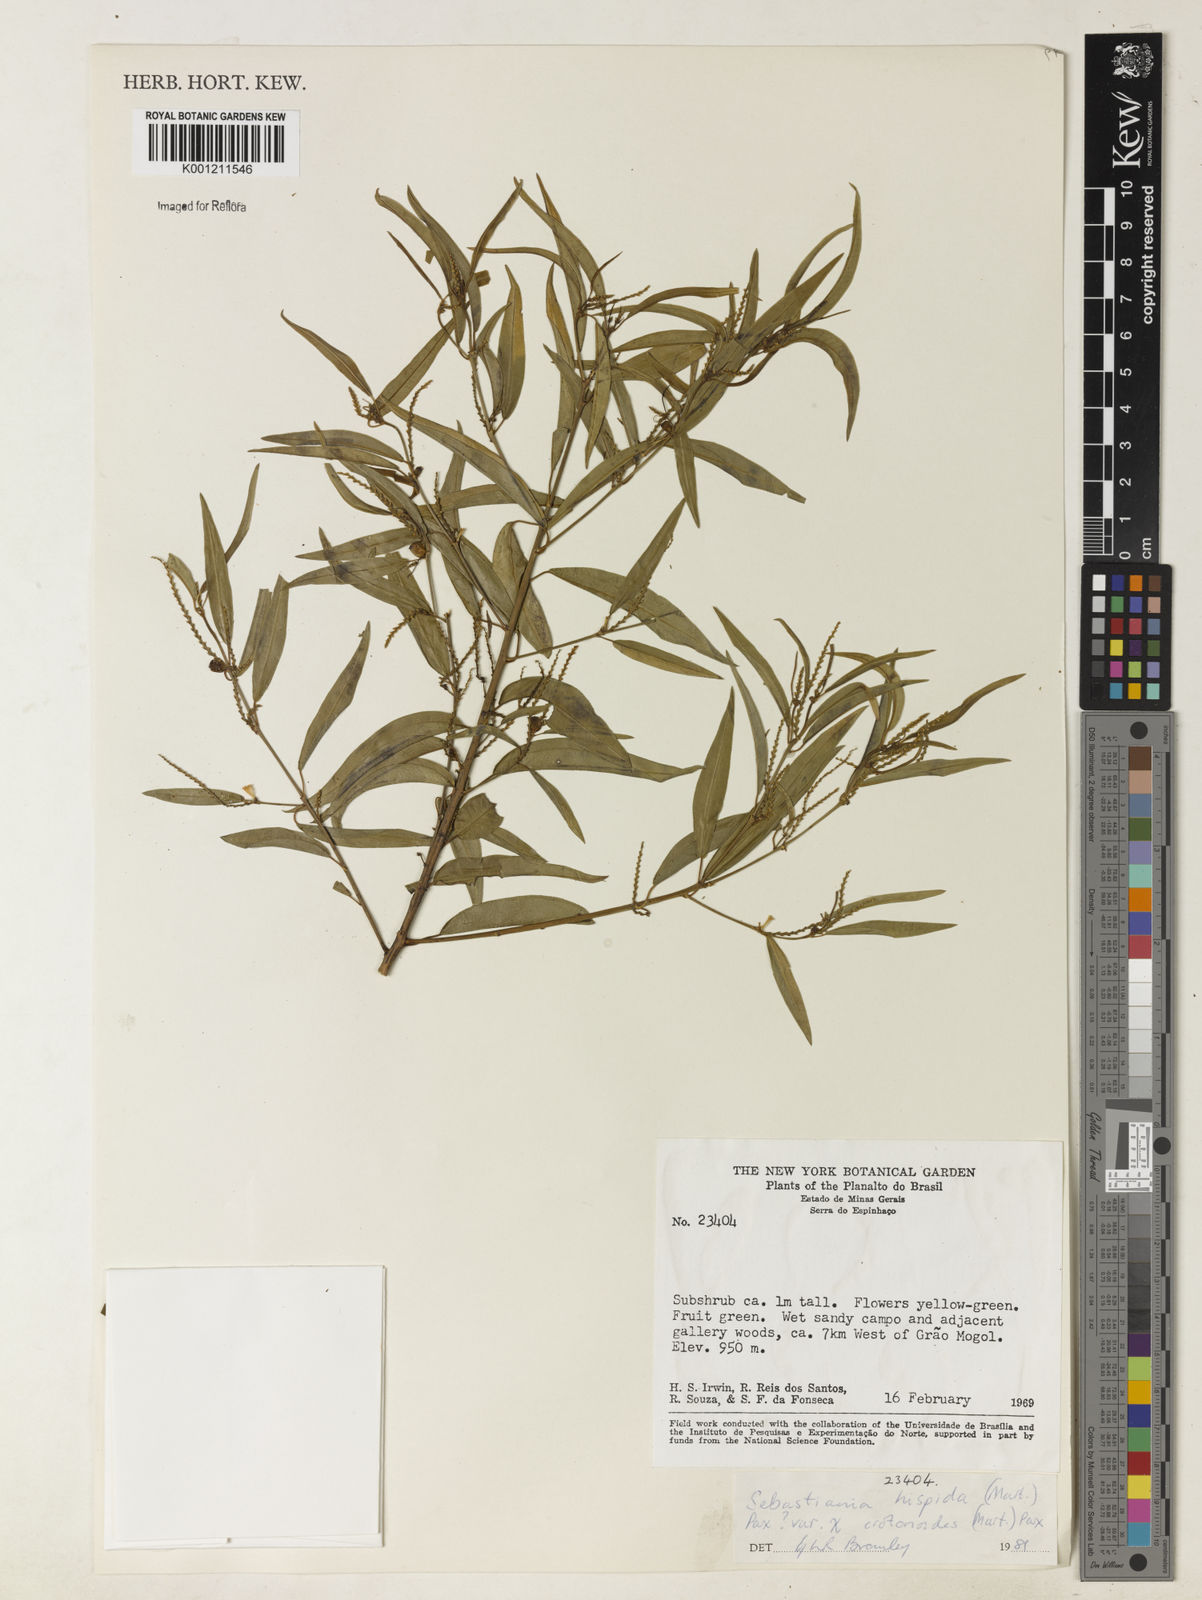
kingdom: Plantae
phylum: Tracheophyta
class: Magnoliopsida
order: Malpighiales
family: Euphorbiaceae
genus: Microstachys
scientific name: Microstachys hispida
